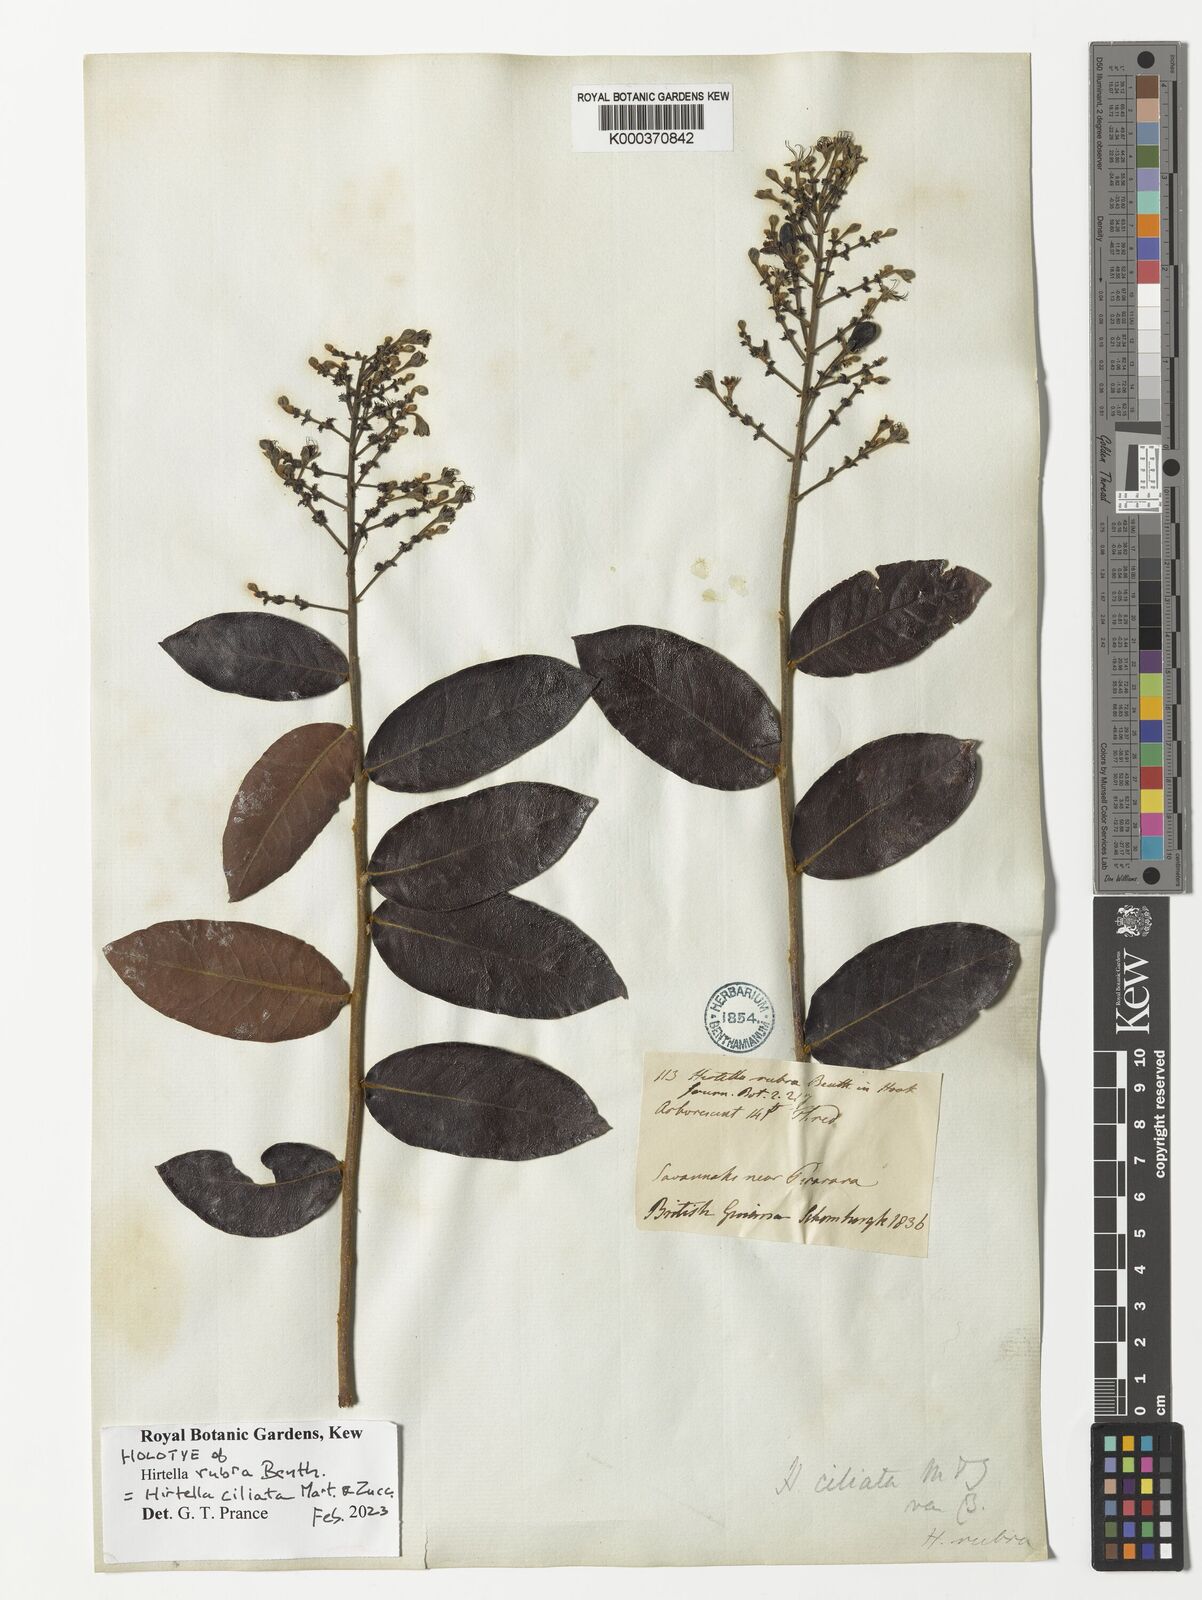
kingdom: Plantae
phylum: Tracheophyta
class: Magnoliopsida
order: Malpighiales
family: Chrysobalanaceae
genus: Hirtella
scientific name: Hirtella ciliata
